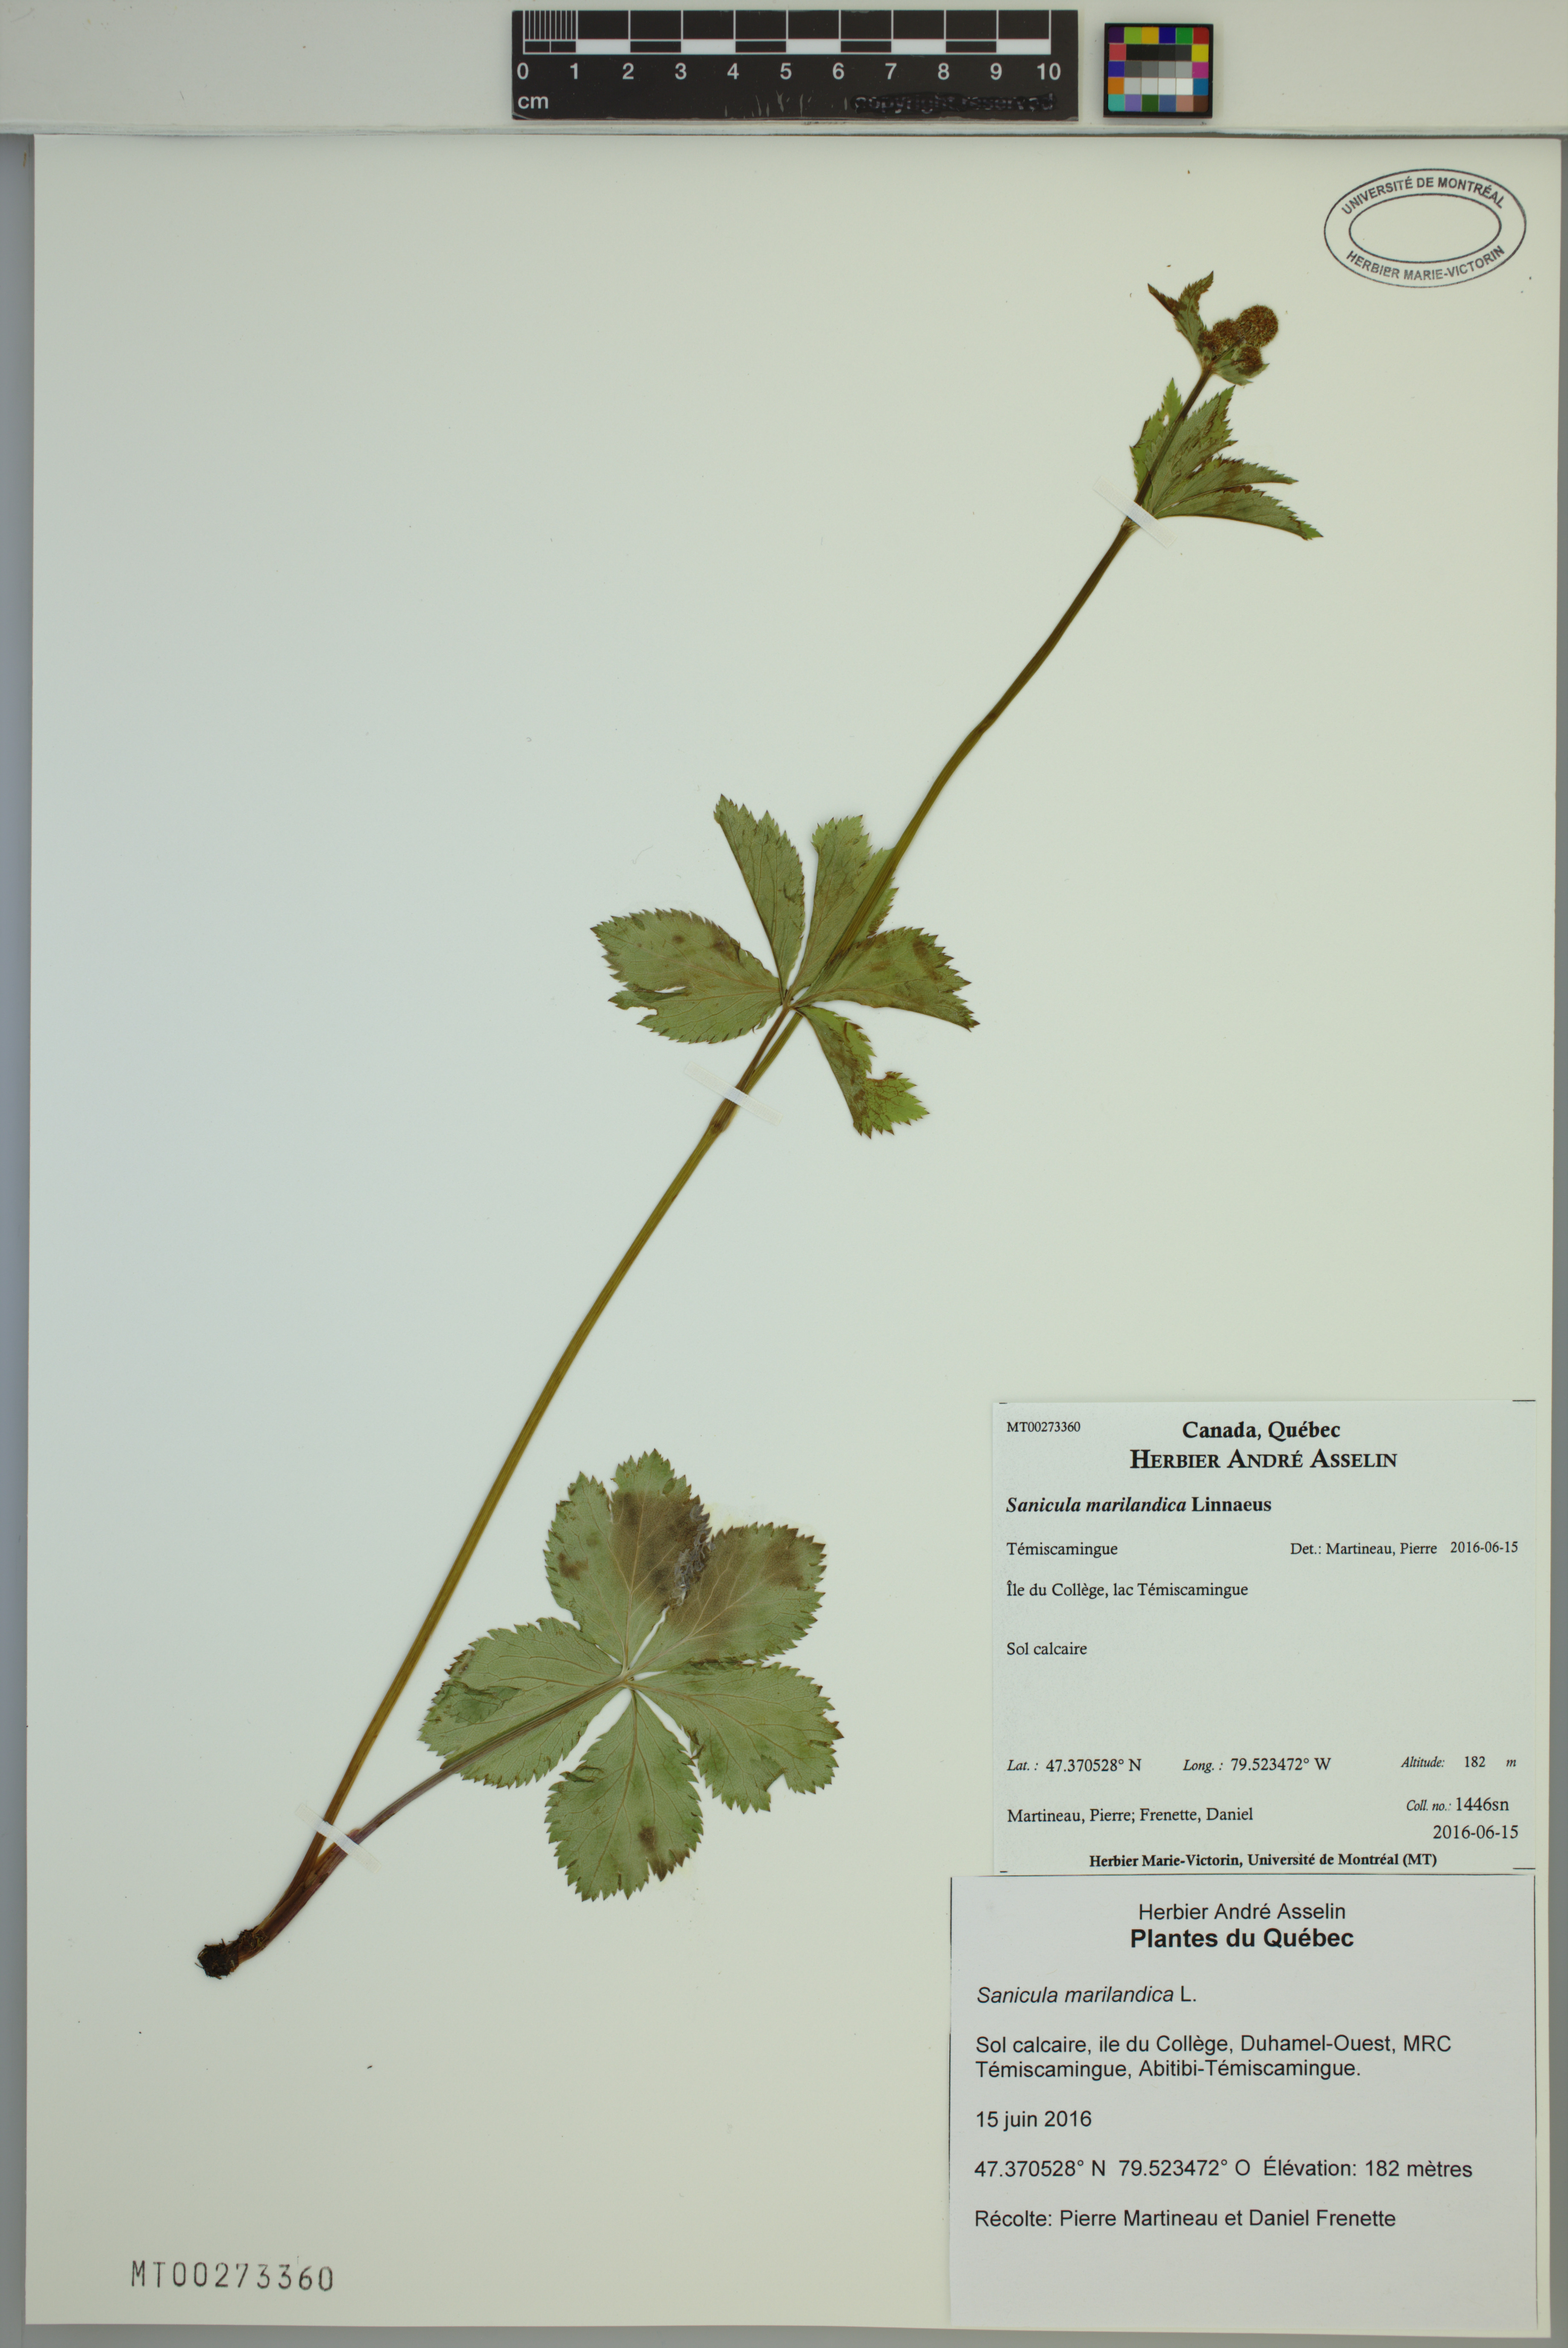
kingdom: Plantae
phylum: Tracheophyta
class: Magnoliopsida
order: Apiales
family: Apiaceae
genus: Sanicula
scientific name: Sanicula marilandica
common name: Black snakeroot
